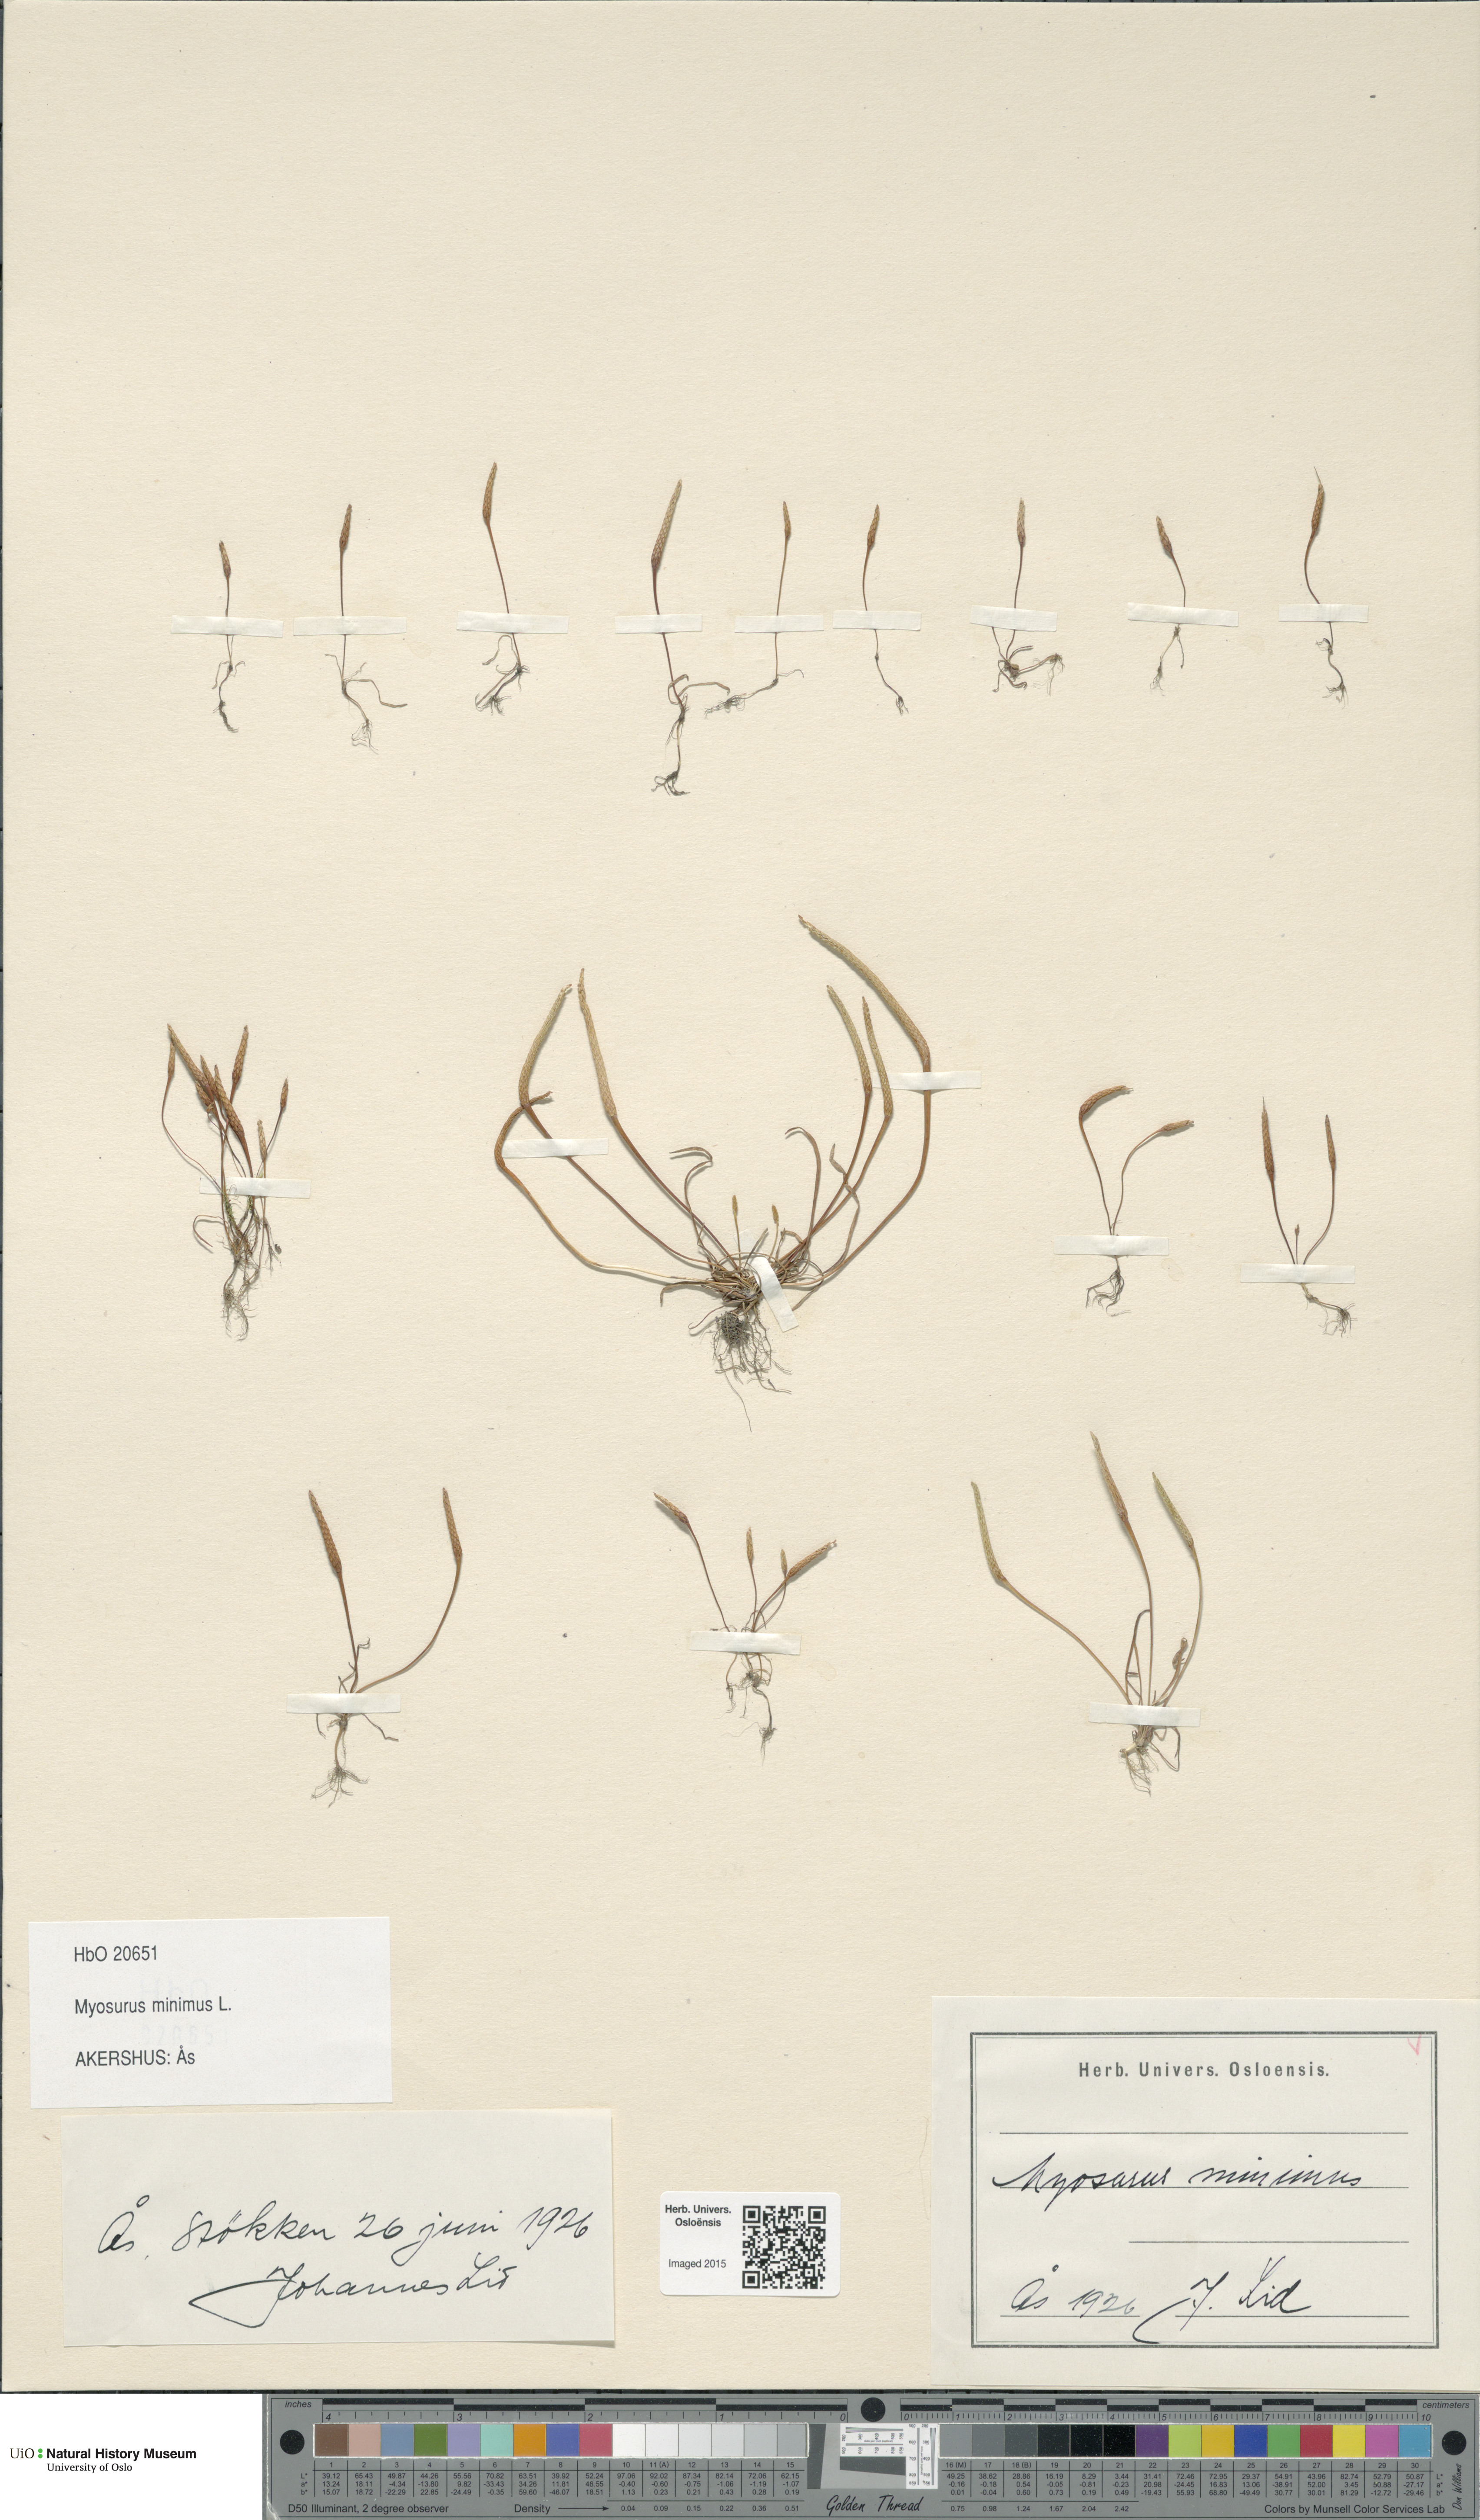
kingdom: Plantae
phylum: Tracheophyta
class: Magnoliopsida
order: Ranunculales
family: Ranunculaceae
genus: Myosurus
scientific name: Myosurus minimus
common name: Mousetail
